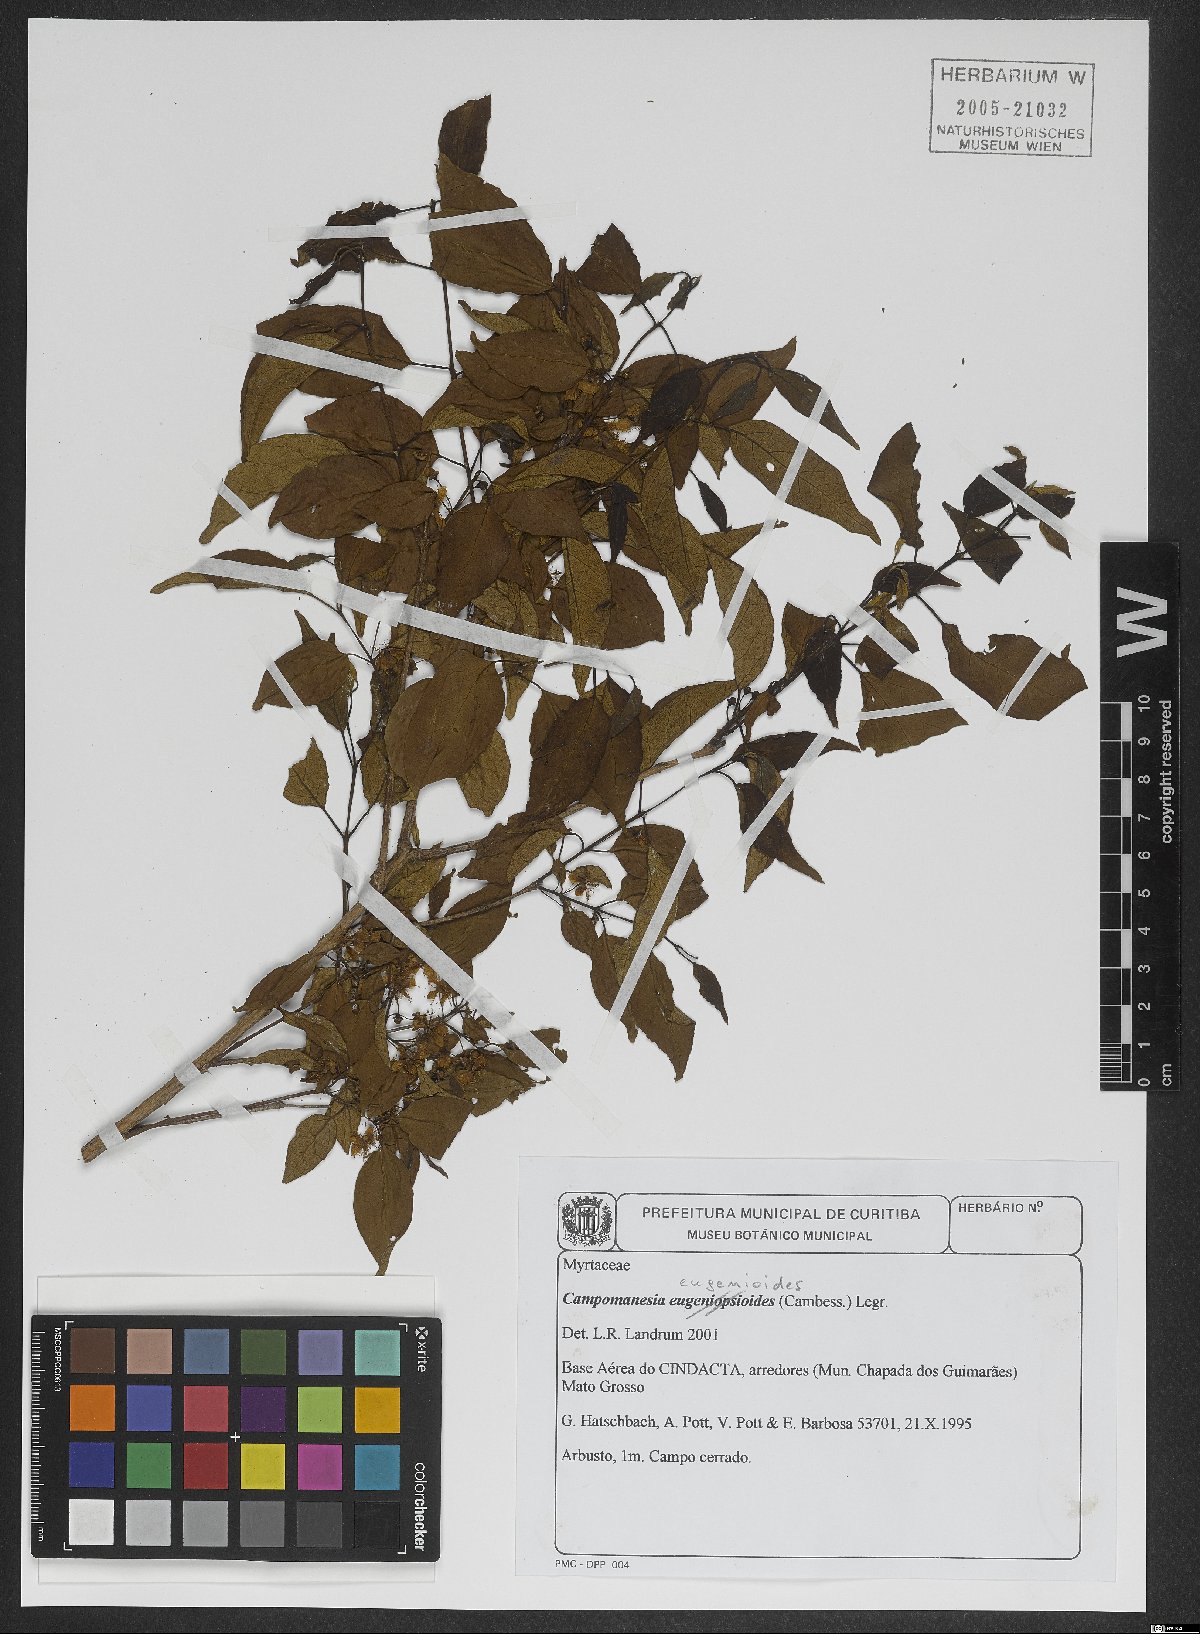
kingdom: Plantae
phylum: Tracheophyta
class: Magnoliopsida
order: Myrtales
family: Myrtaceae
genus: Campomanesia
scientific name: Campomanesia eugenioides
